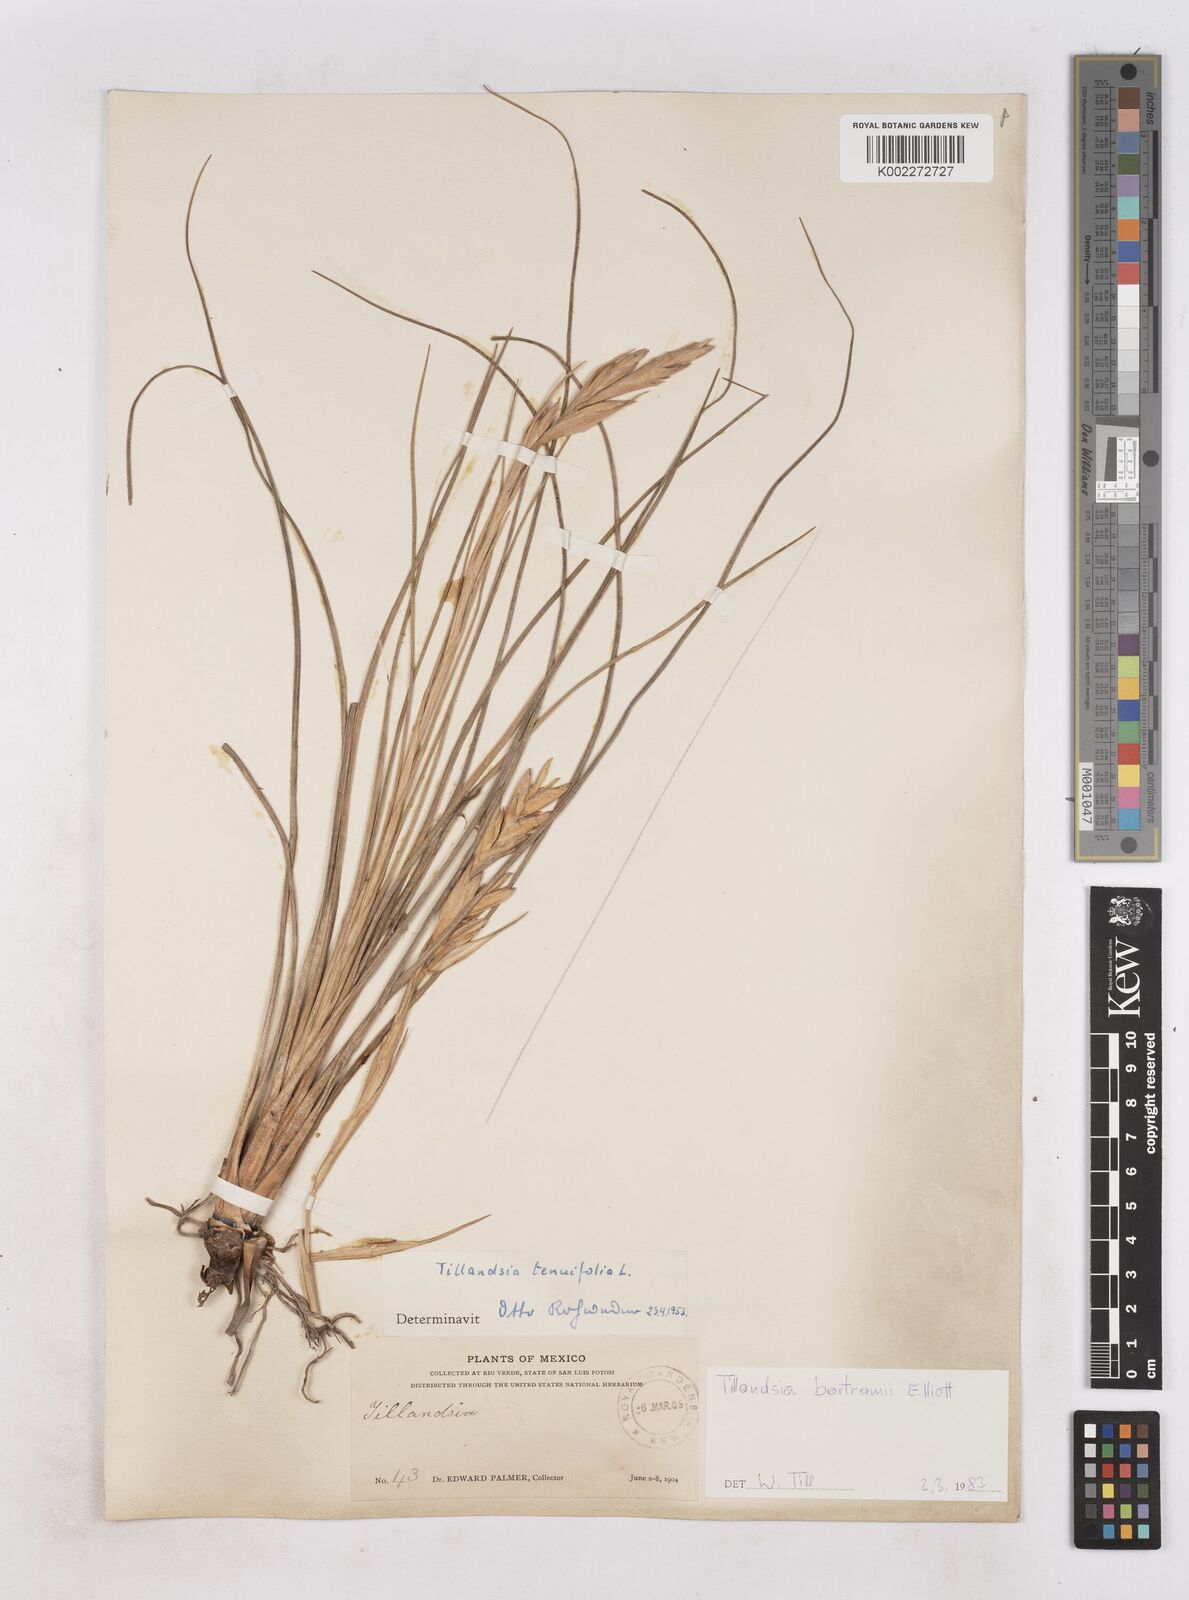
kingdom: Plantae
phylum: Tracheophyta
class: Liliopsida
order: Poales
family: Bromeliaceae
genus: Tillandsia
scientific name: Tillandsia bartramii
